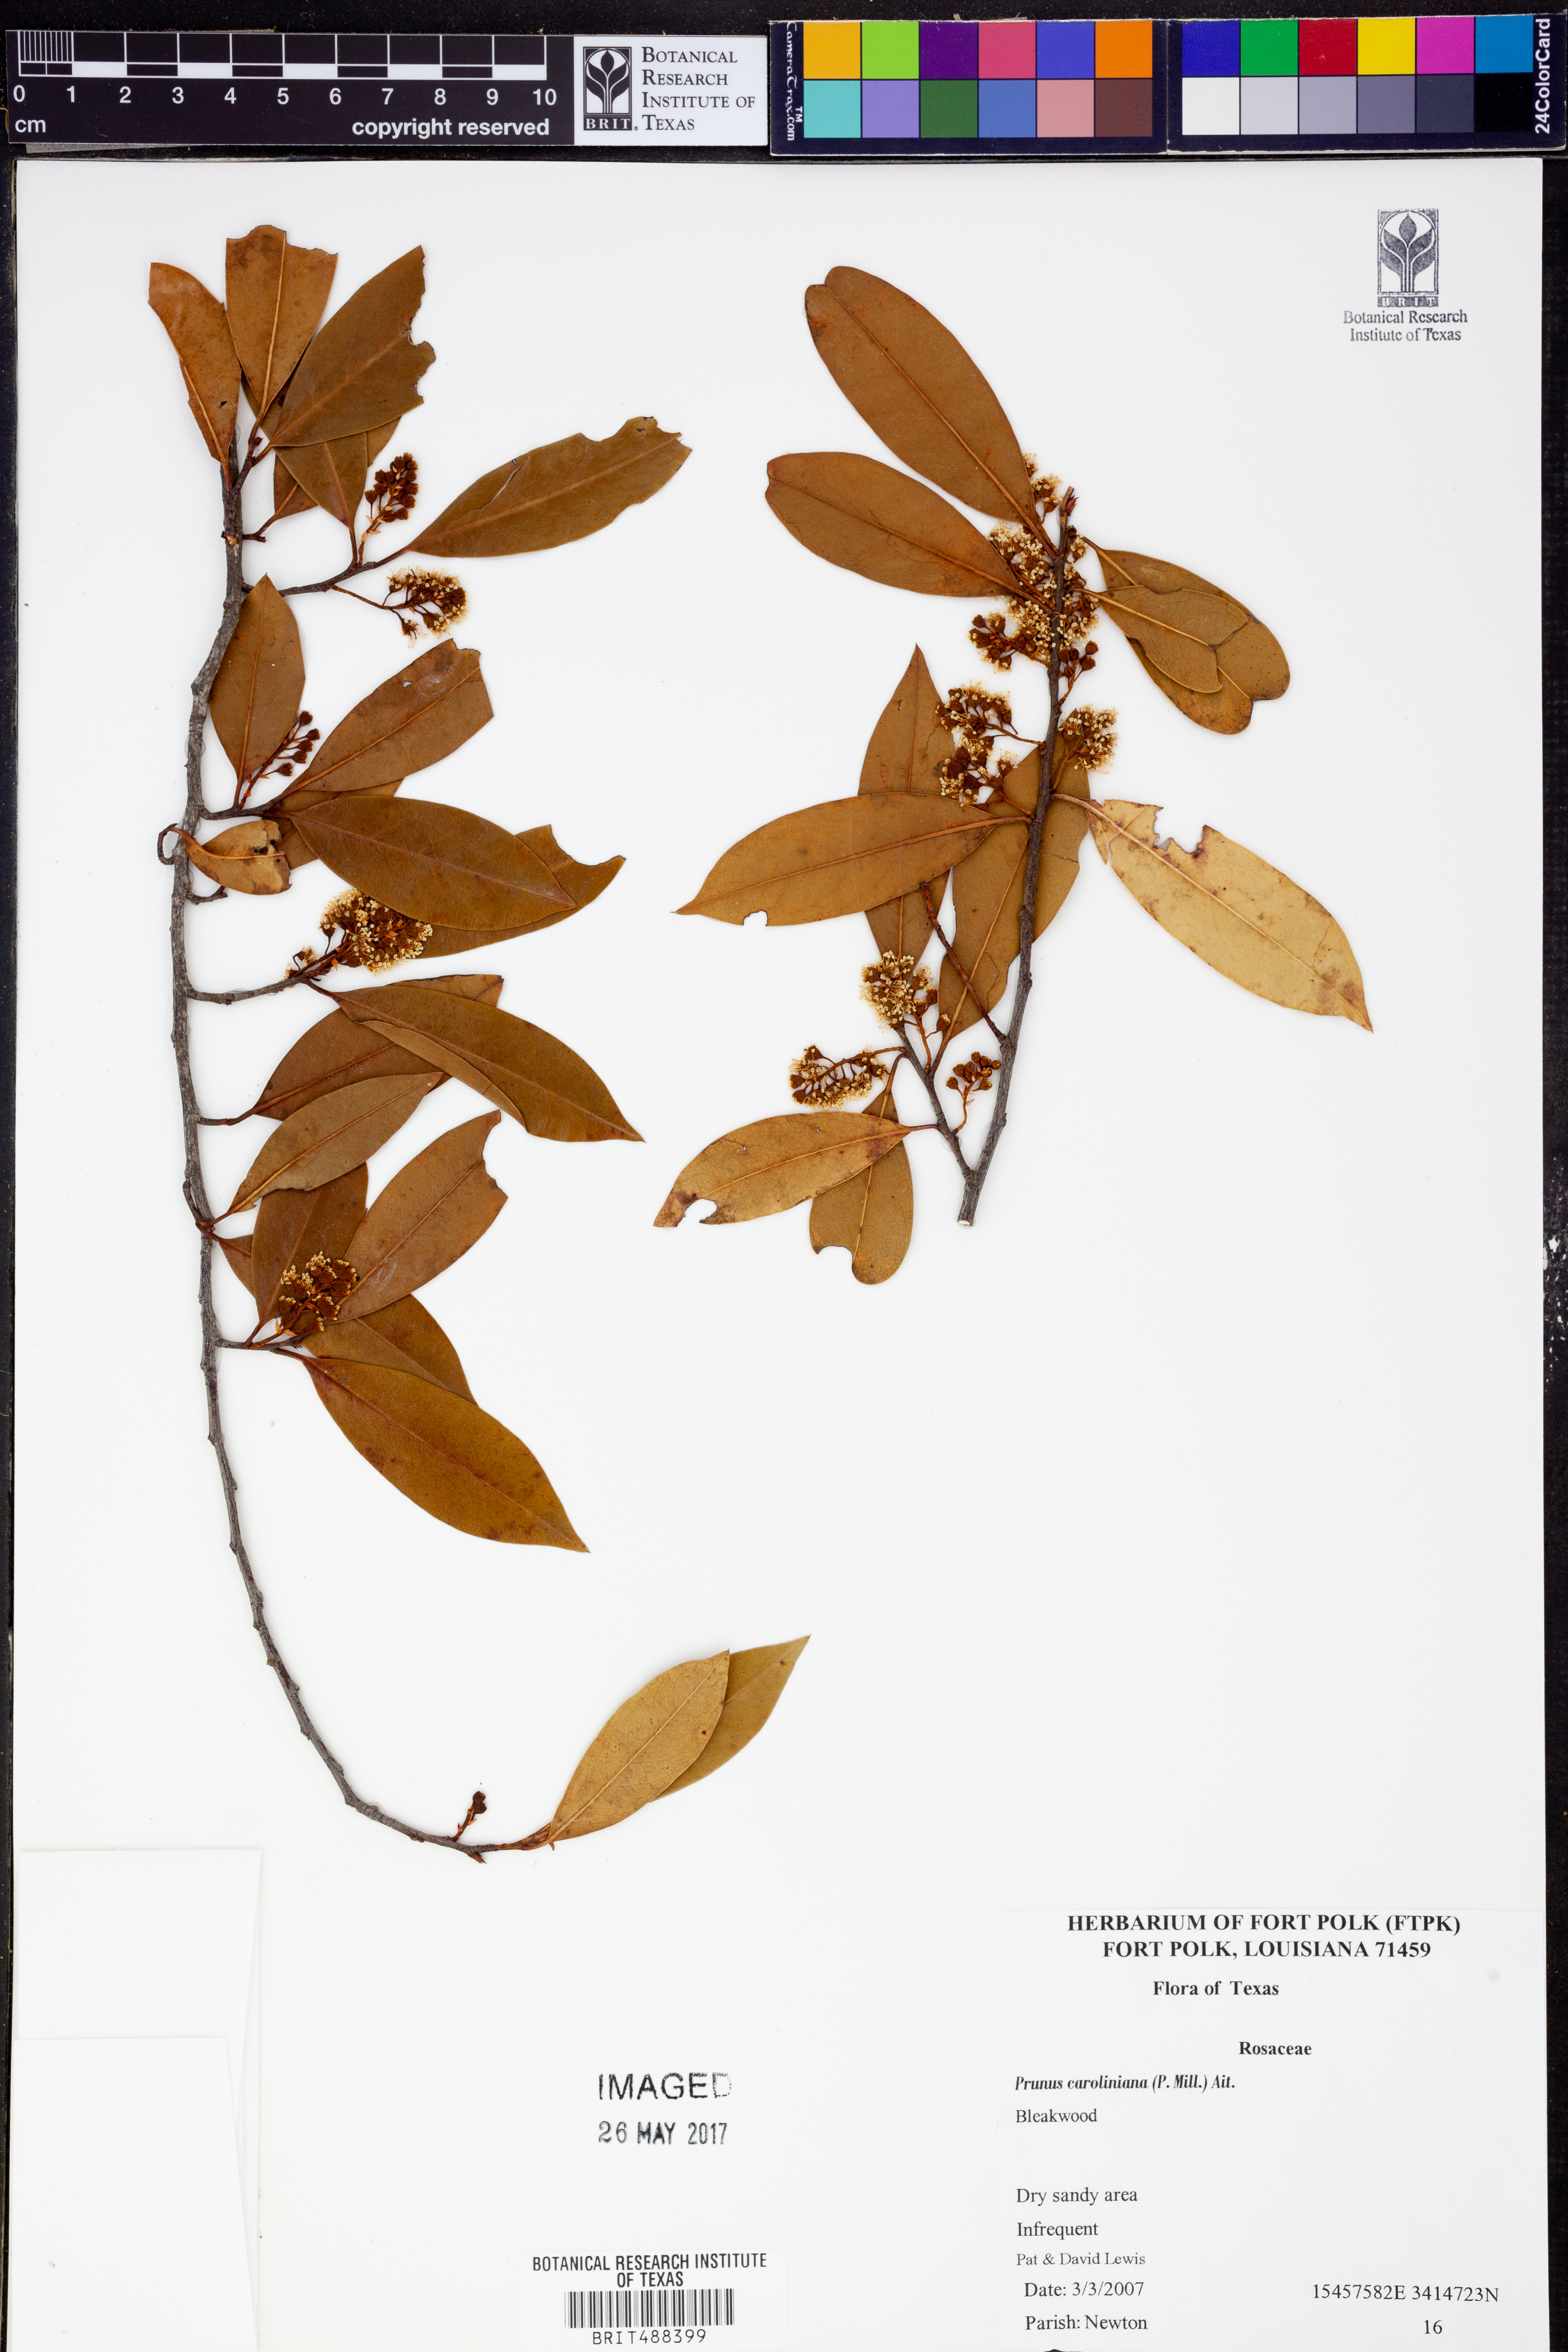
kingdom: Plantae
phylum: Tracheophyta
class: Magnoliopsida
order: Rosales
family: Rosaceae
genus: Prunus
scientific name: Prunus caroliniana
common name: Carolina laurel cherry
